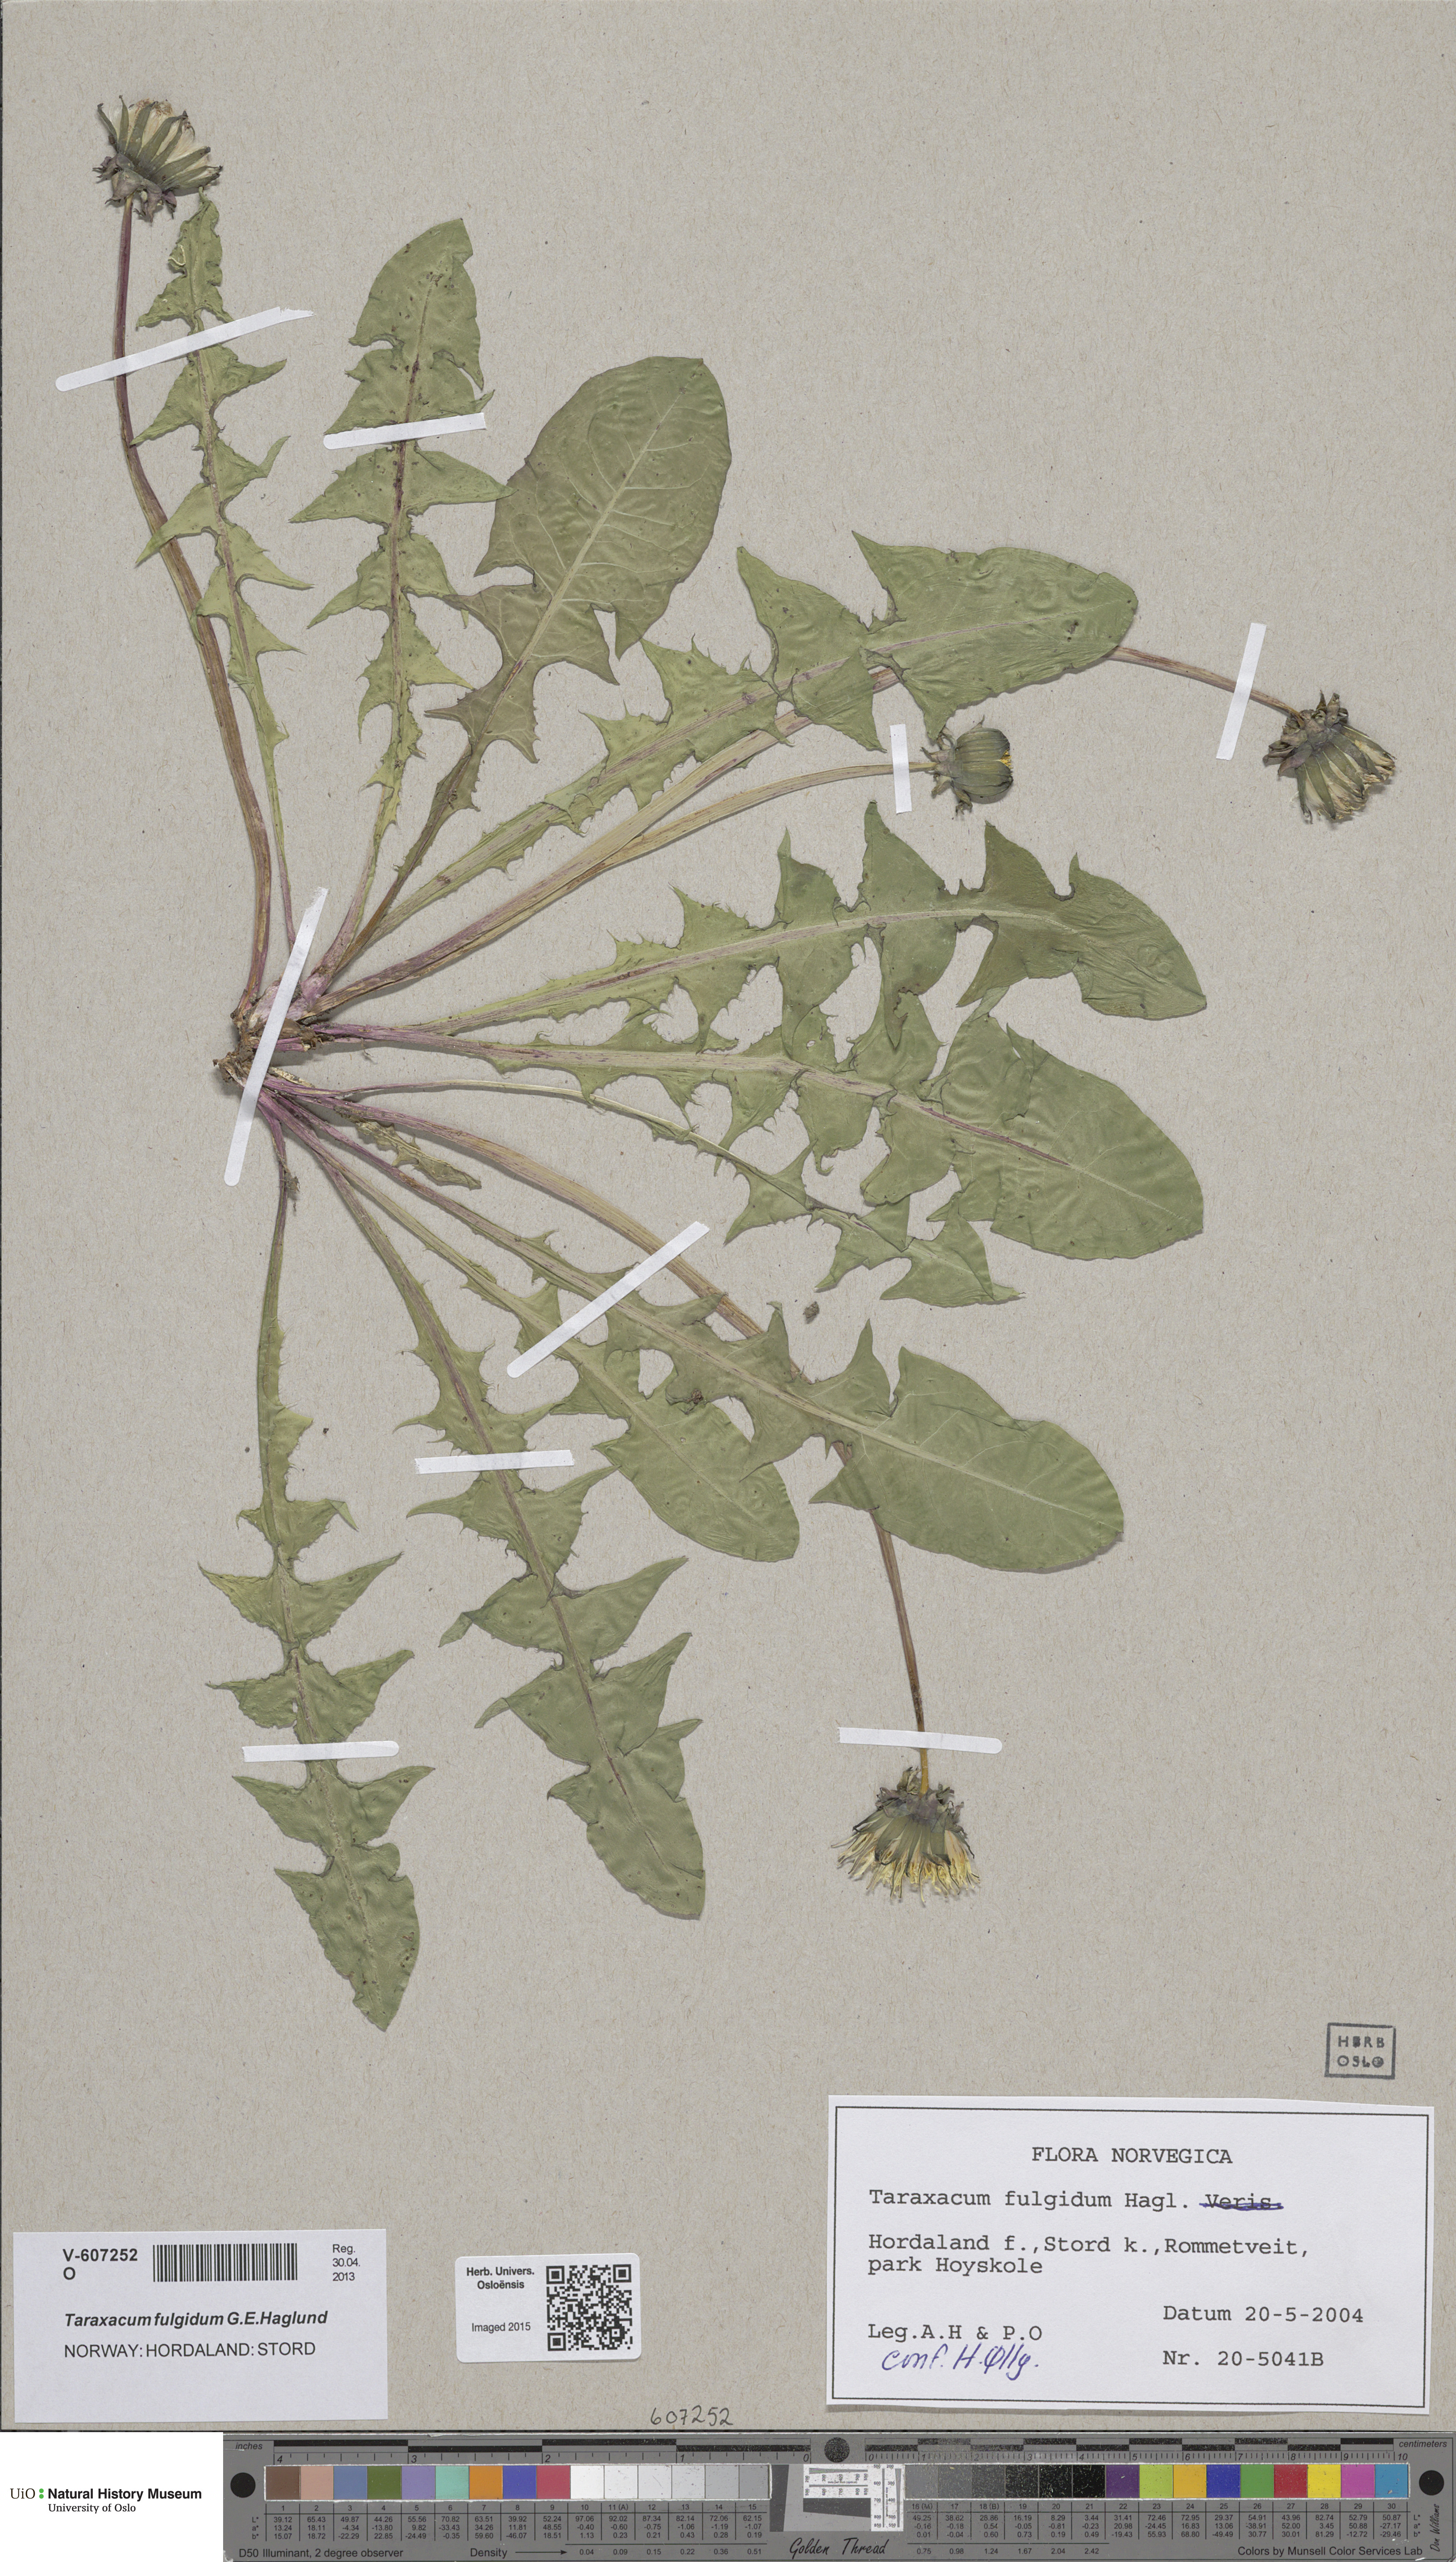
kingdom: Plantae
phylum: Tracheophyta
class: Magnoliopsida
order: Asterales
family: Asteraceae
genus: Taraxacum
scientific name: Taraxacum fulgidum
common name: Bright dandelion
